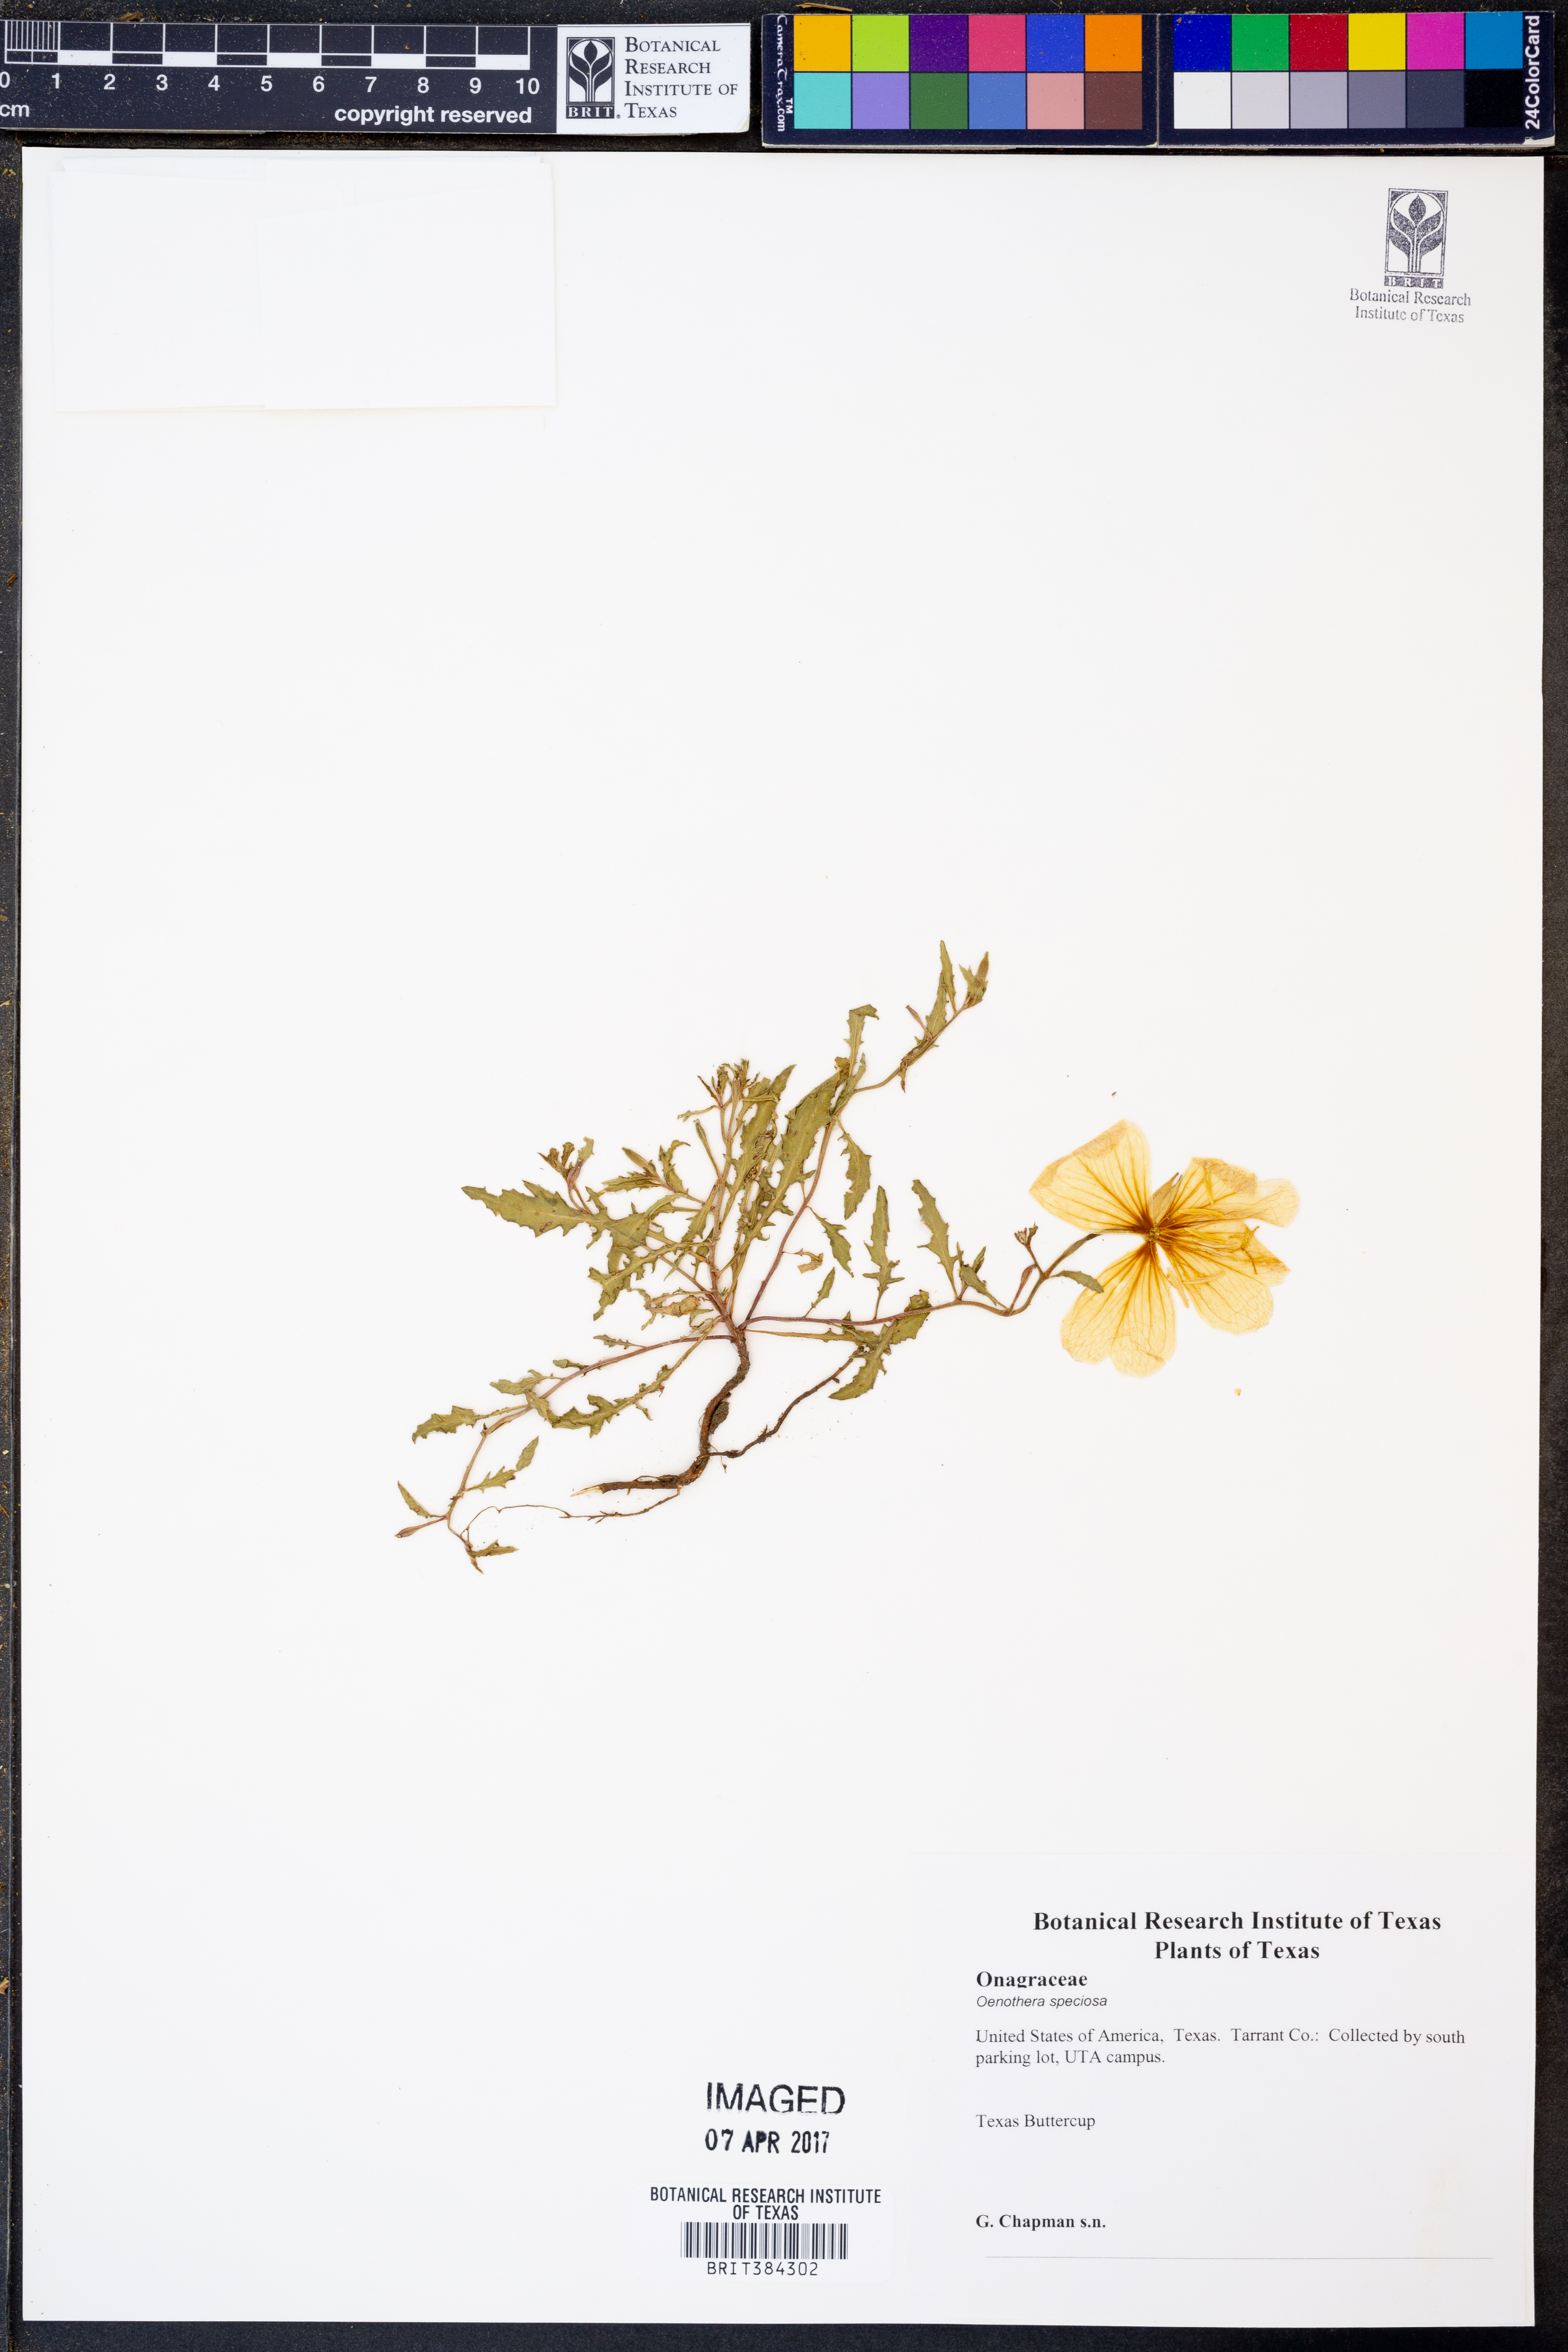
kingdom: Plantae
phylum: Tracheophyta
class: Magnoliopsida
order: Myrtales
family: Onagraceae
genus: Oenothera
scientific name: Oenothera speciosa
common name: White evening-primrose
